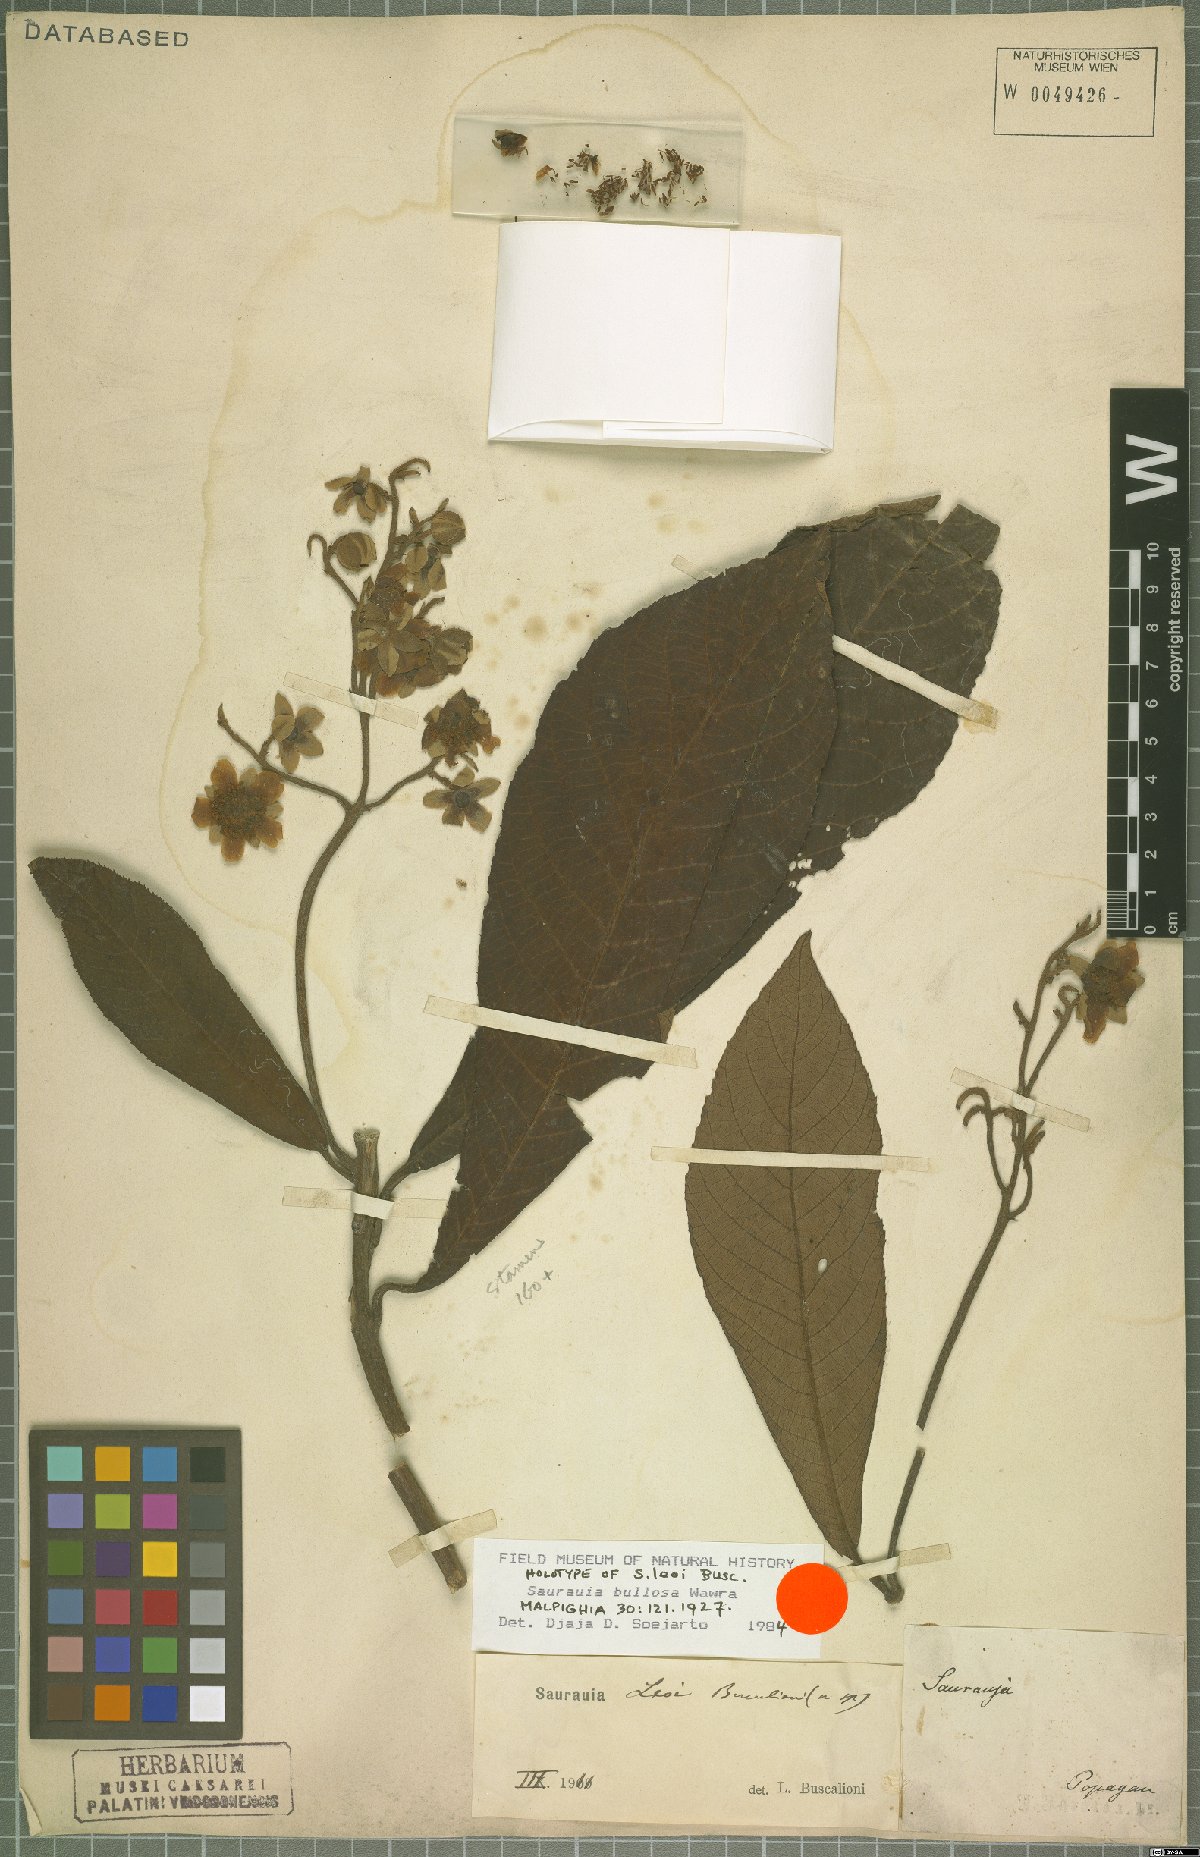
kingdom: Plantae
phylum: Tracheophyta
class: Magnoliopsida
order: Ericales
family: Actinidiaceae
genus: Saurauia
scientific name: Saurauia bullosa
